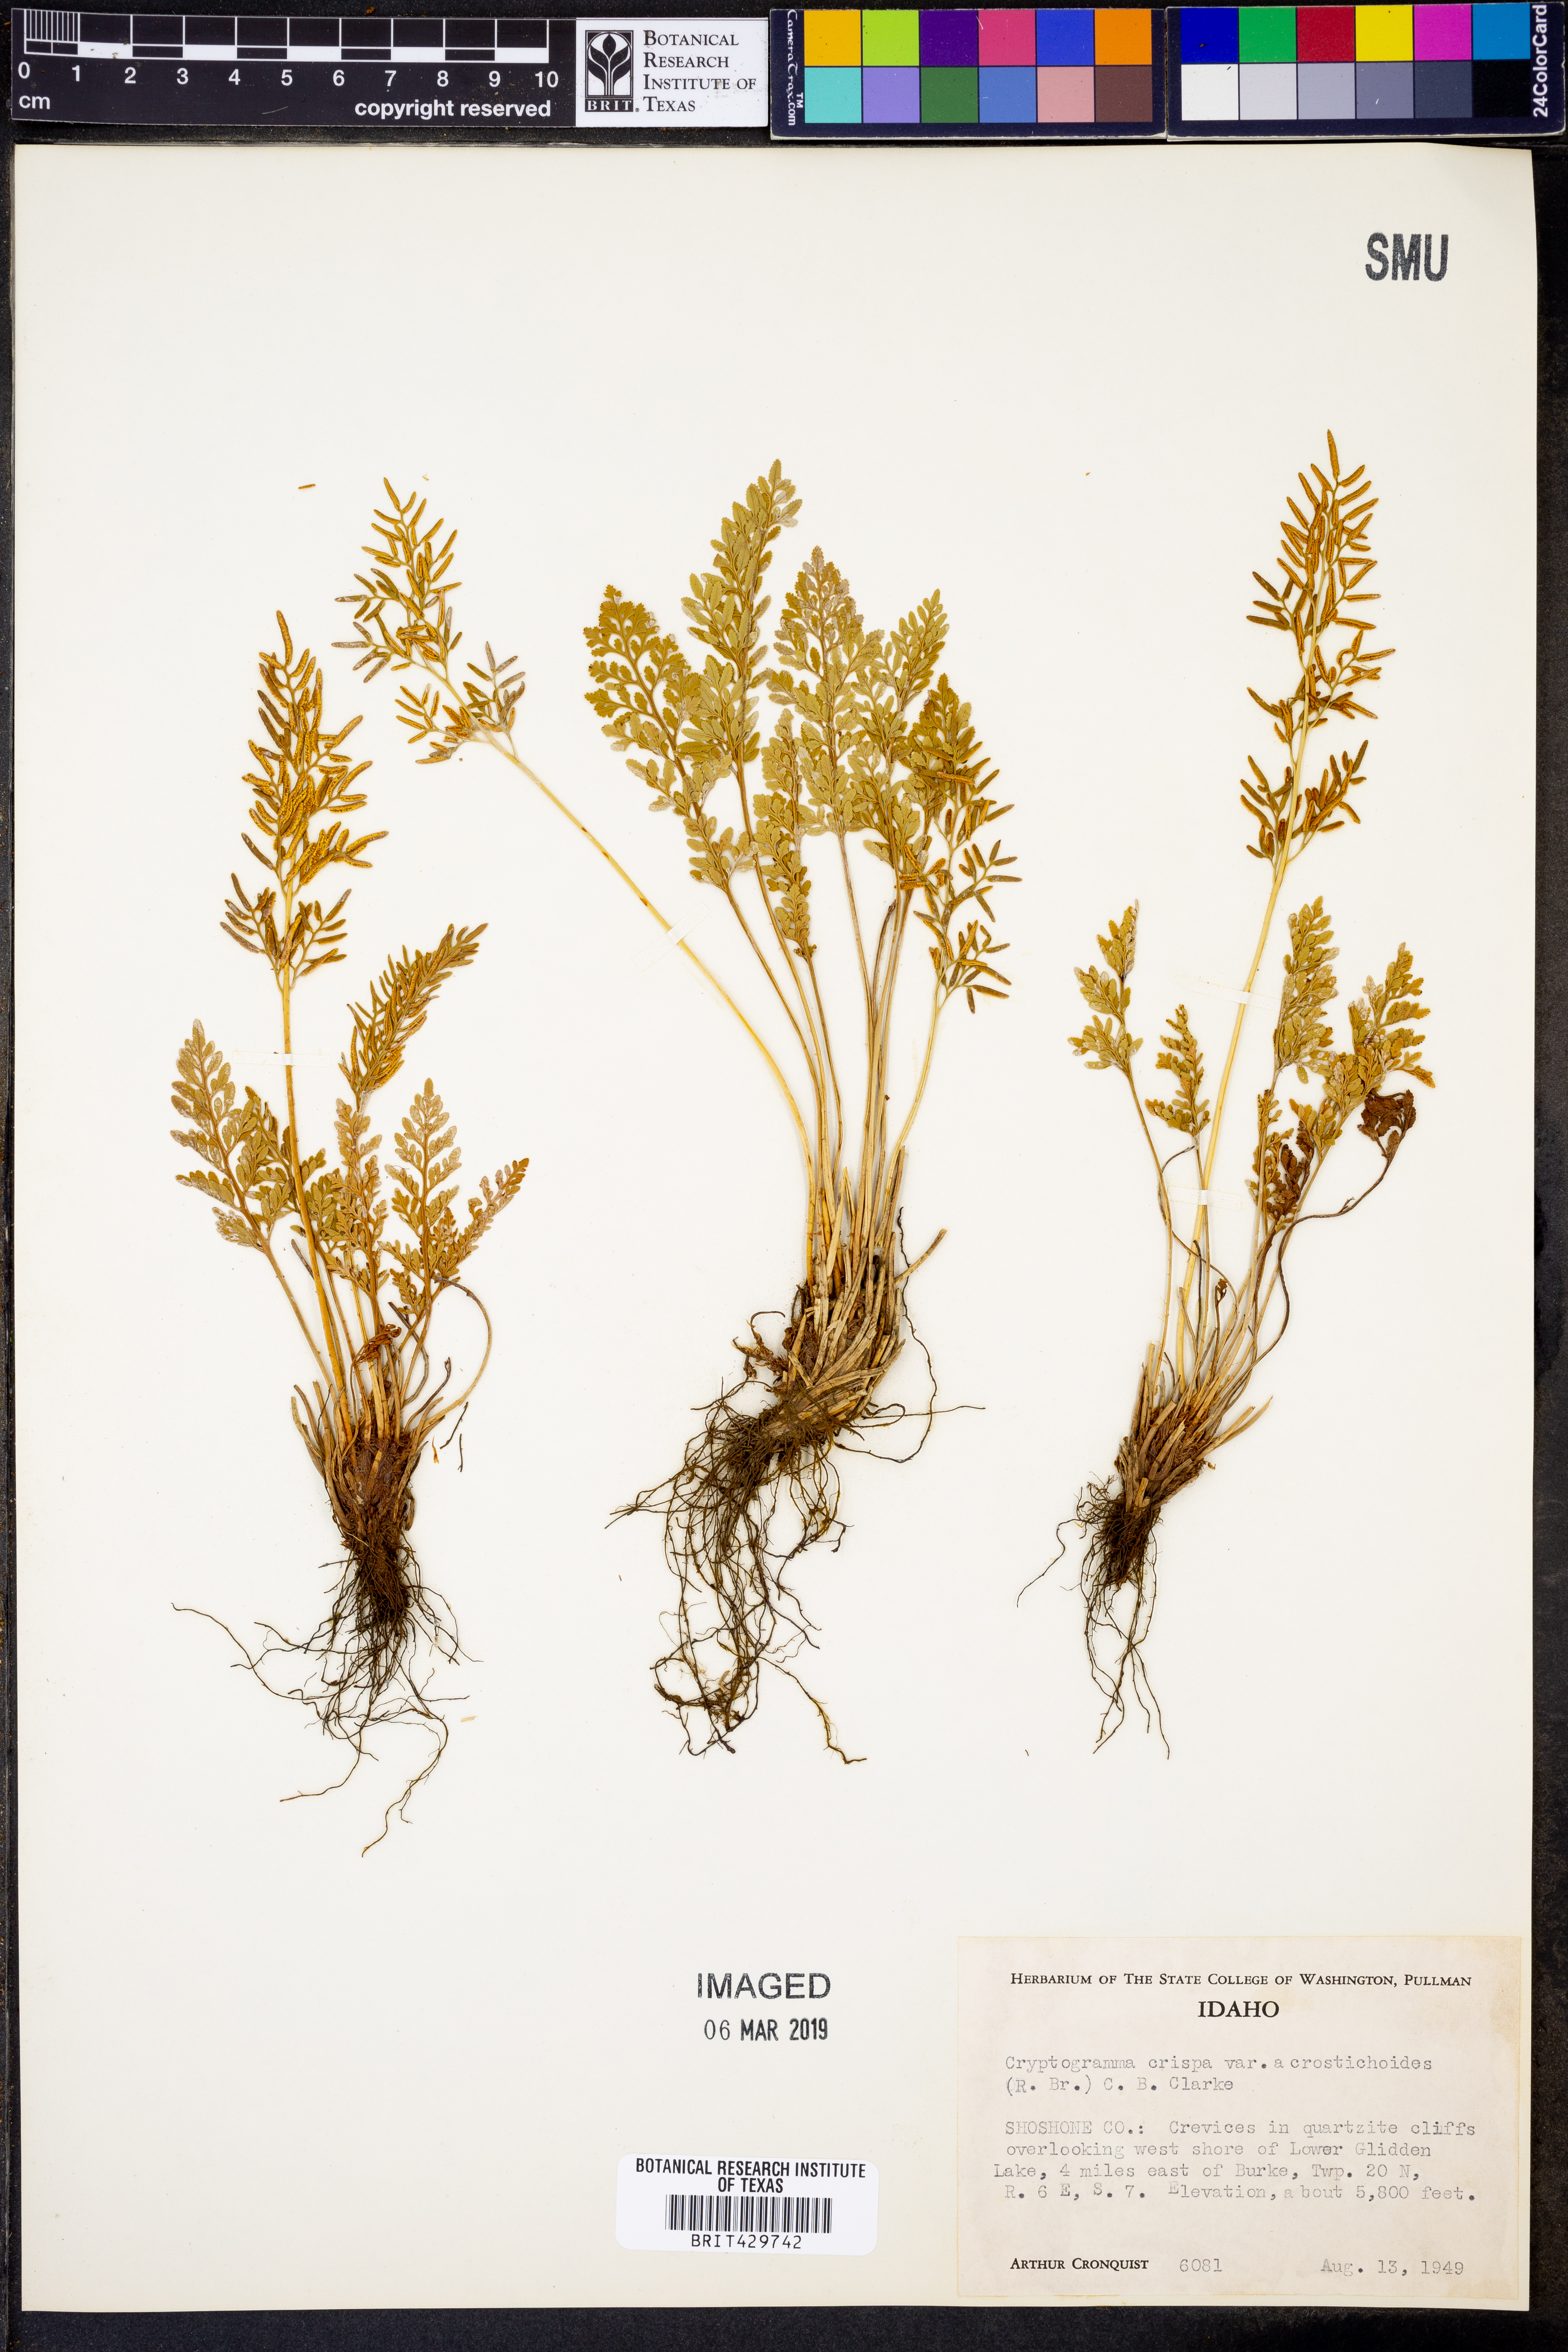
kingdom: Plantae
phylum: Tracheophyta
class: Polypodiopsida
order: Polypodiales
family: Pteridaceae
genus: Cryptogramma
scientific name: Cryptogramma acrostichoides
